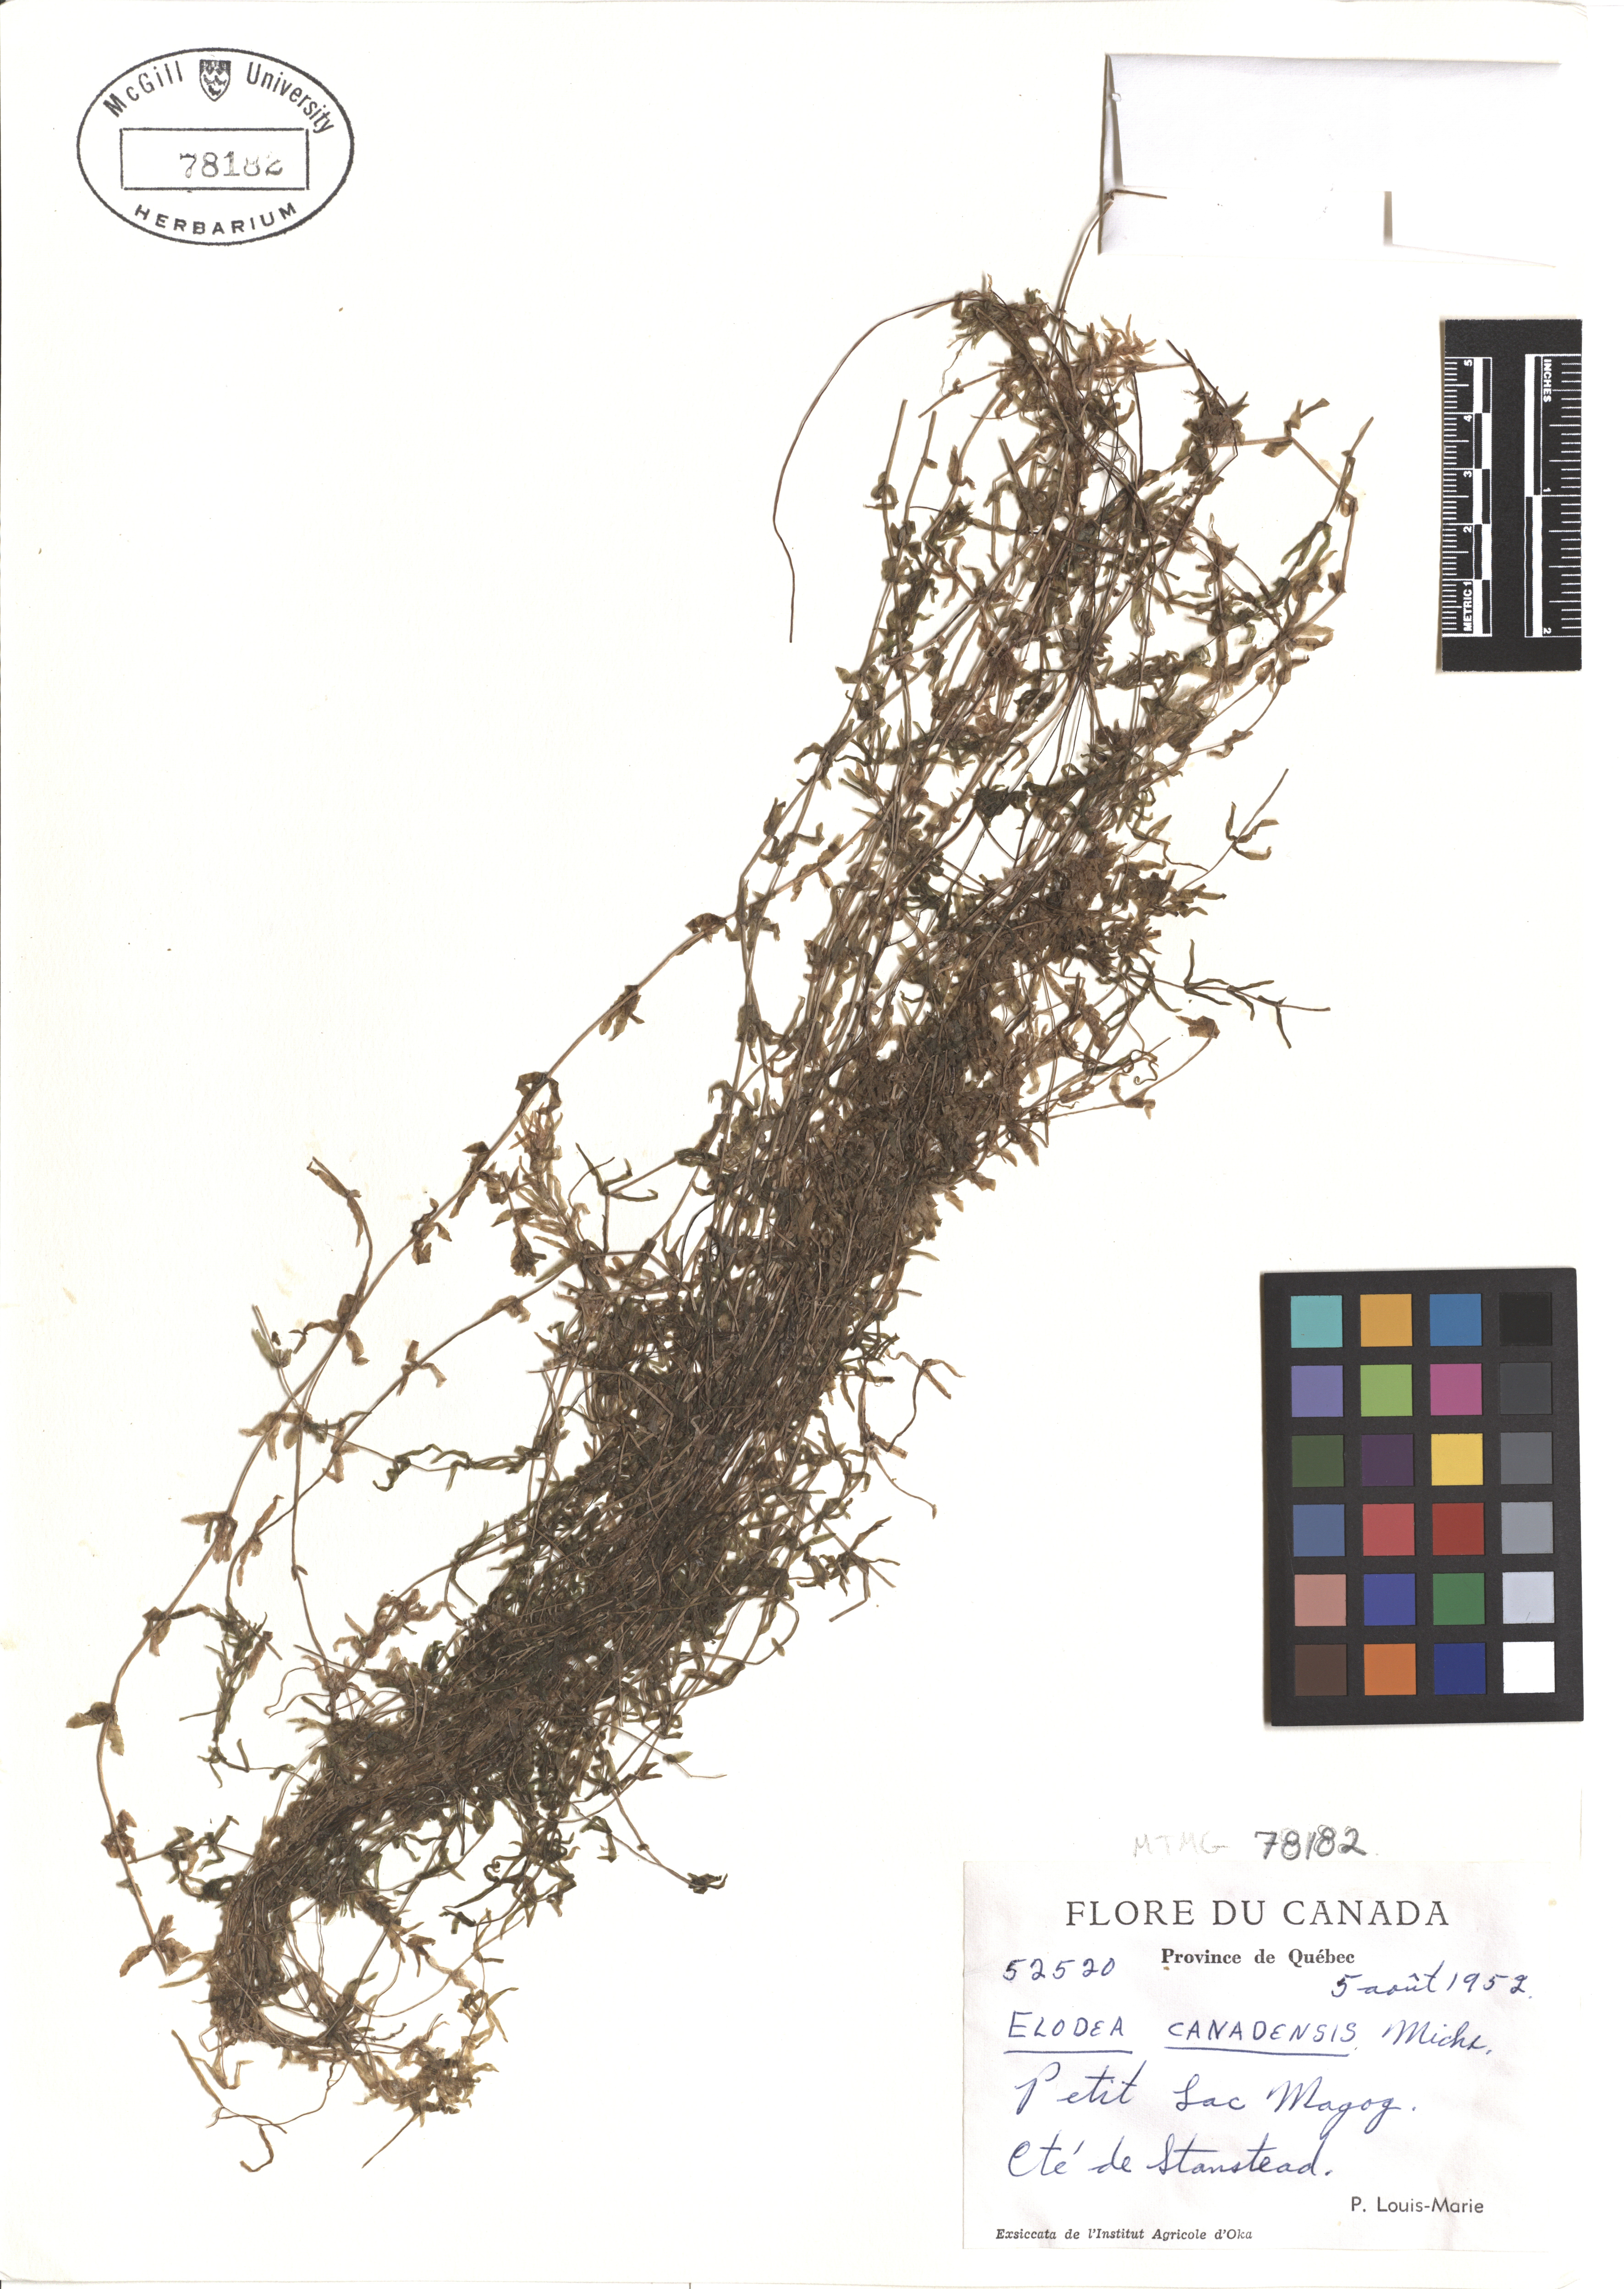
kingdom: Plantae
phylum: Tracheophyta
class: Liliopsida
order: Alismatales
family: Hydrocharitaceae
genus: Elodea
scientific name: Elodea canadensis
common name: Canadian waterweed
